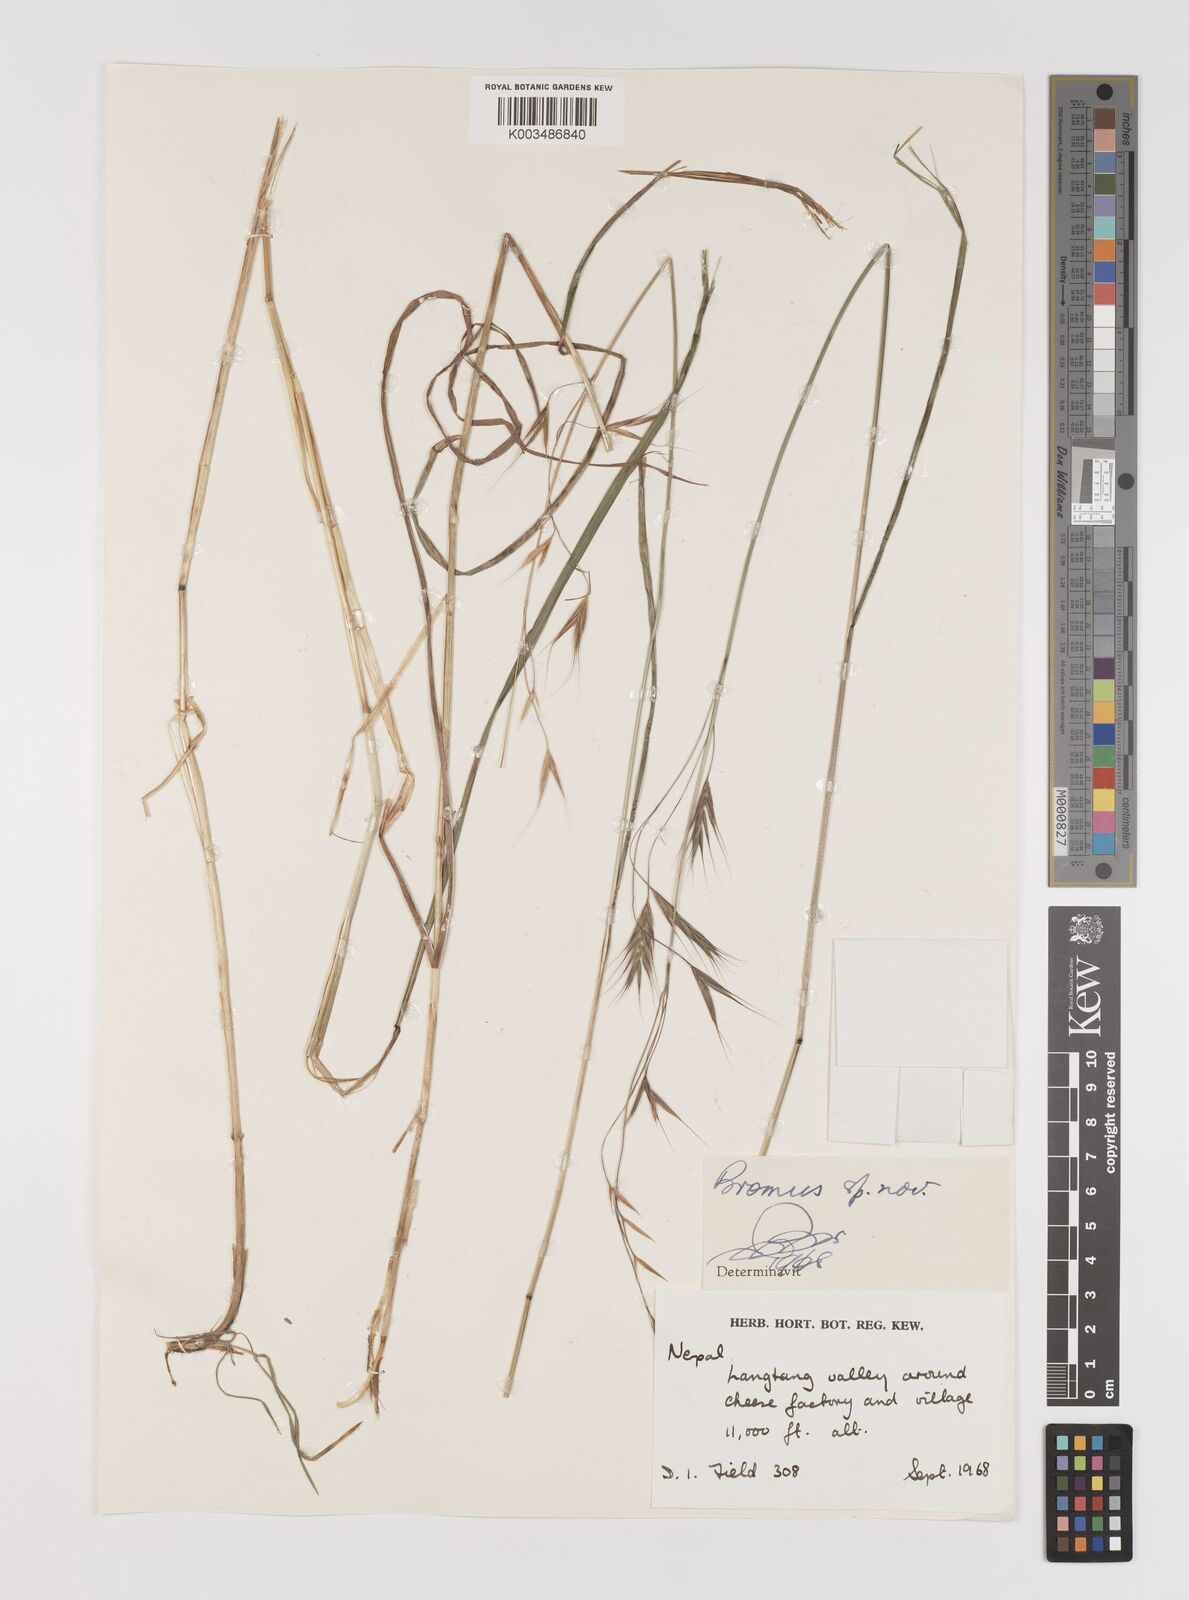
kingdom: Plantae
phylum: Tracheophyta
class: Liliopsida
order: Poales
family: Poaceae
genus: Bromus
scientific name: Bromus
